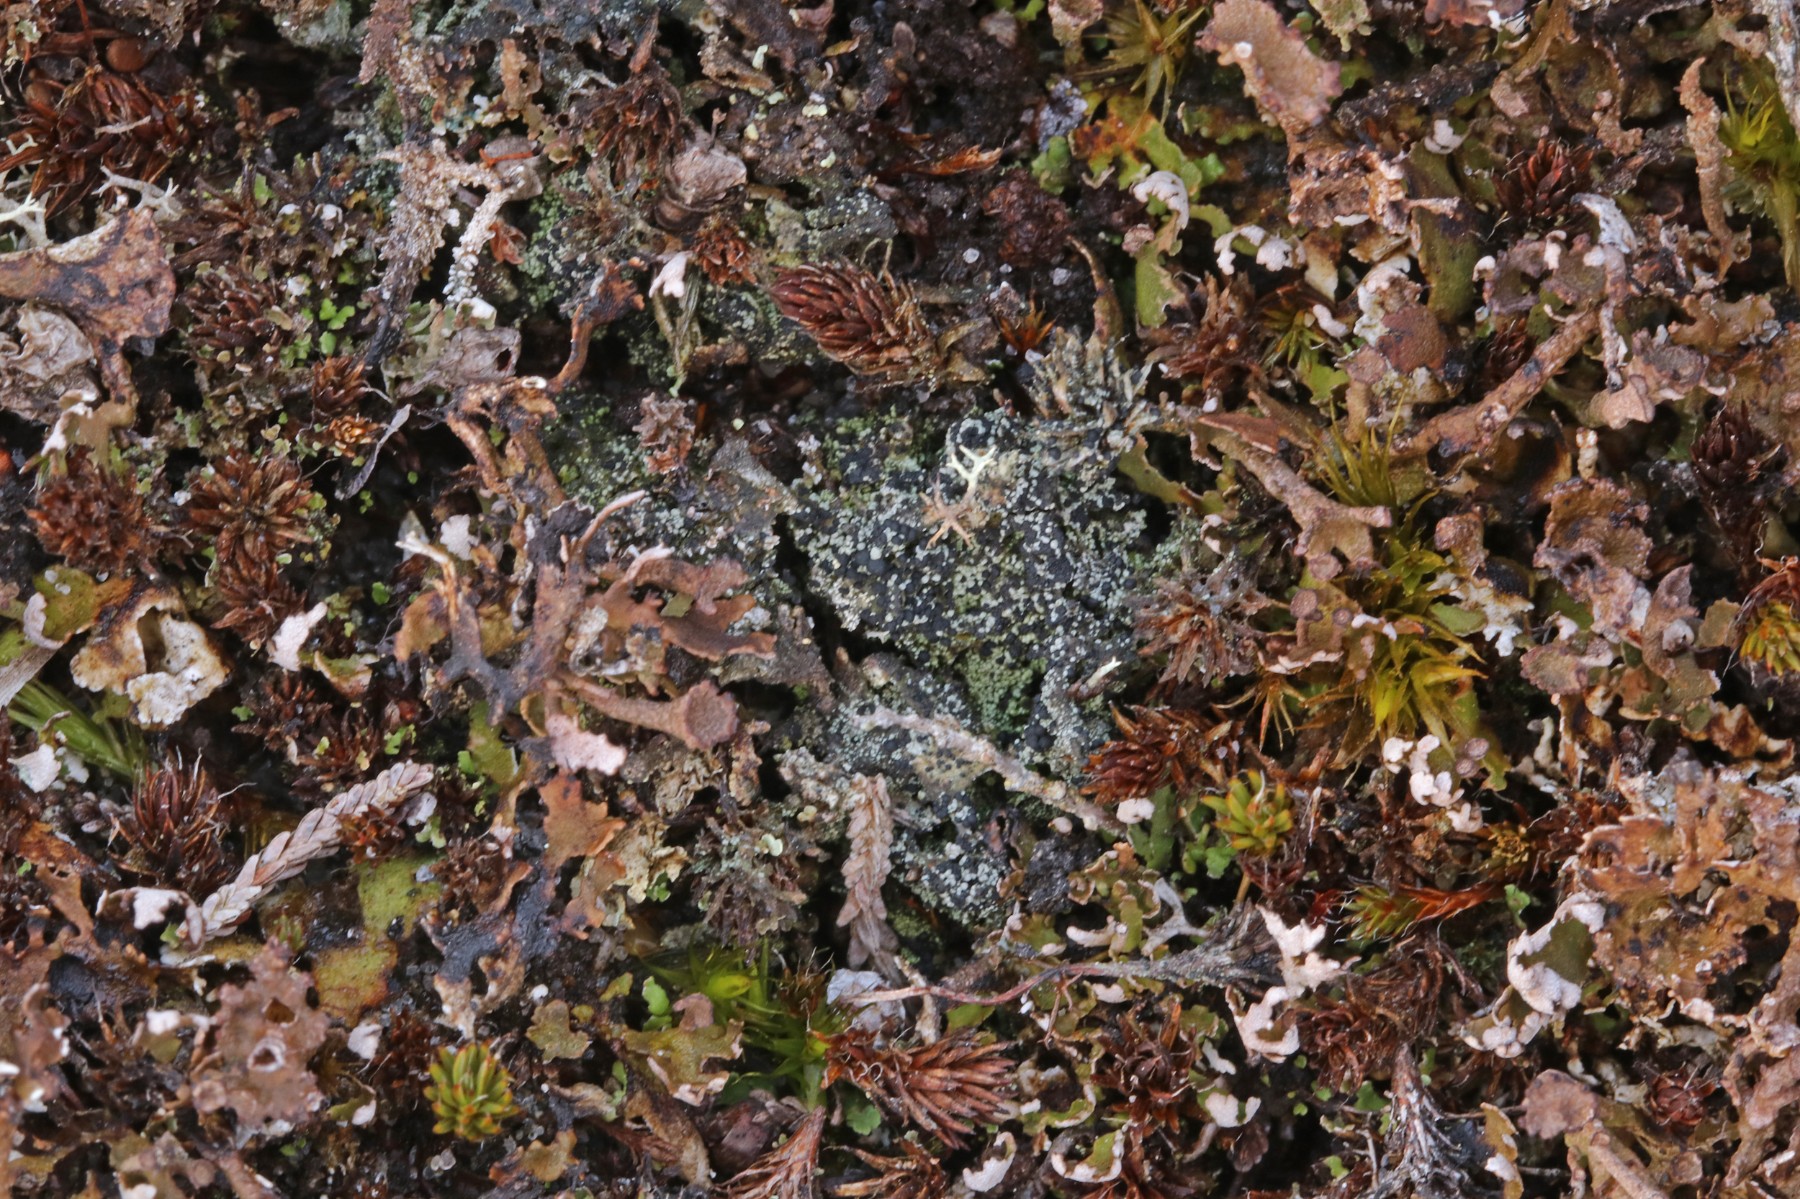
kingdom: Fungi
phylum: Ascomycota
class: Lecanoromycetes
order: Lecanorales
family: Byssolomataceae
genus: Micarea
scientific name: Micarea lignaria
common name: tørve-knaplav
